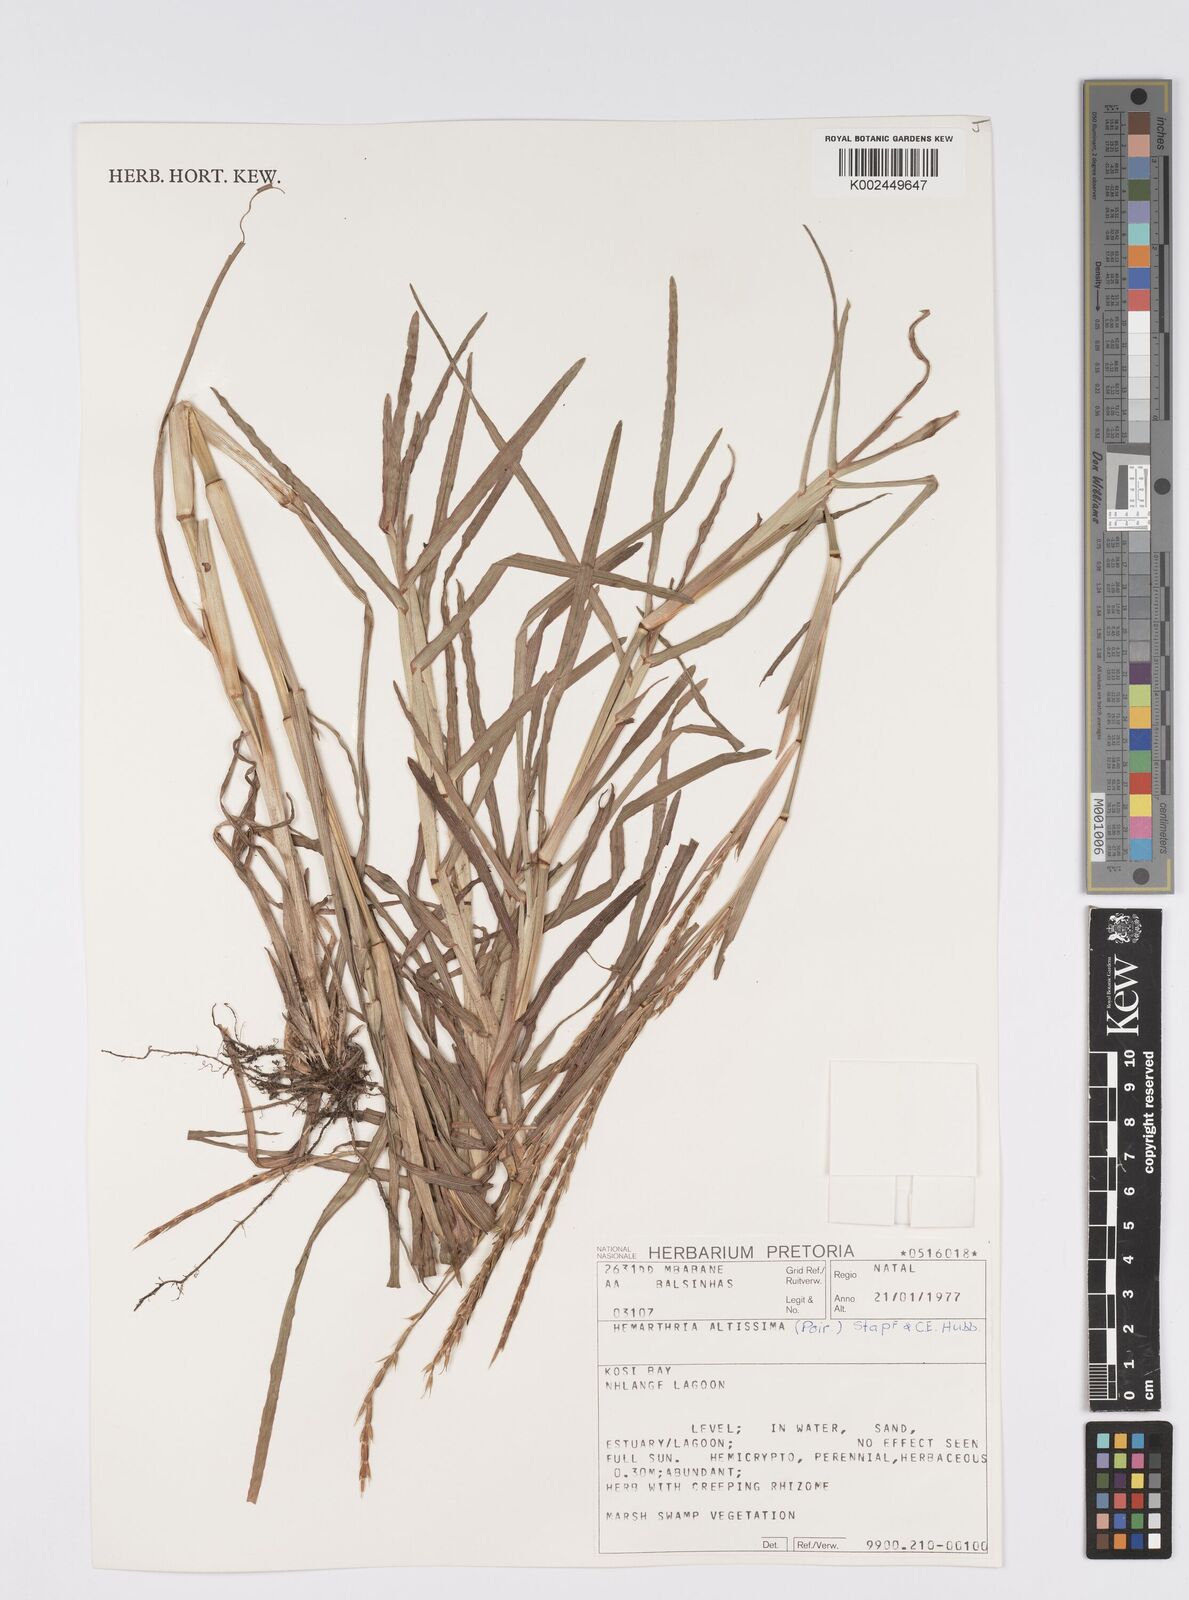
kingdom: Plantae
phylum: Tracheophyta
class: Liliopsida
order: Poales
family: Poaceae
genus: Hemarthria
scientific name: Hemarthria altissima
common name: African jointgrass
